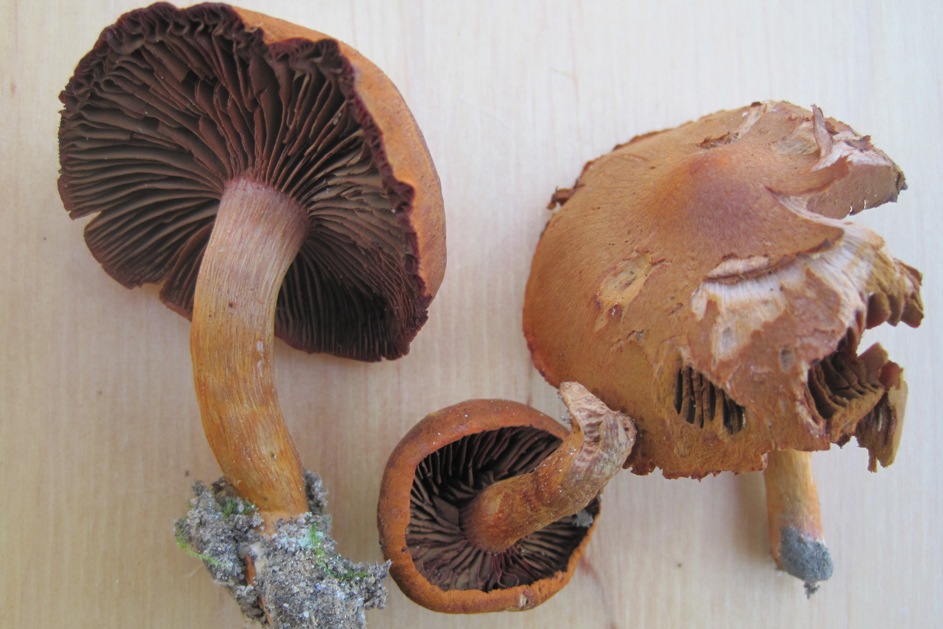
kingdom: Fungi
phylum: Basidiomycota
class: Agaricomycetes
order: Agaricales
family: Cortinariaceae
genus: Cortinarius
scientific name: Cortinarius cinnabarinus
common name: cinnober-slørhat
